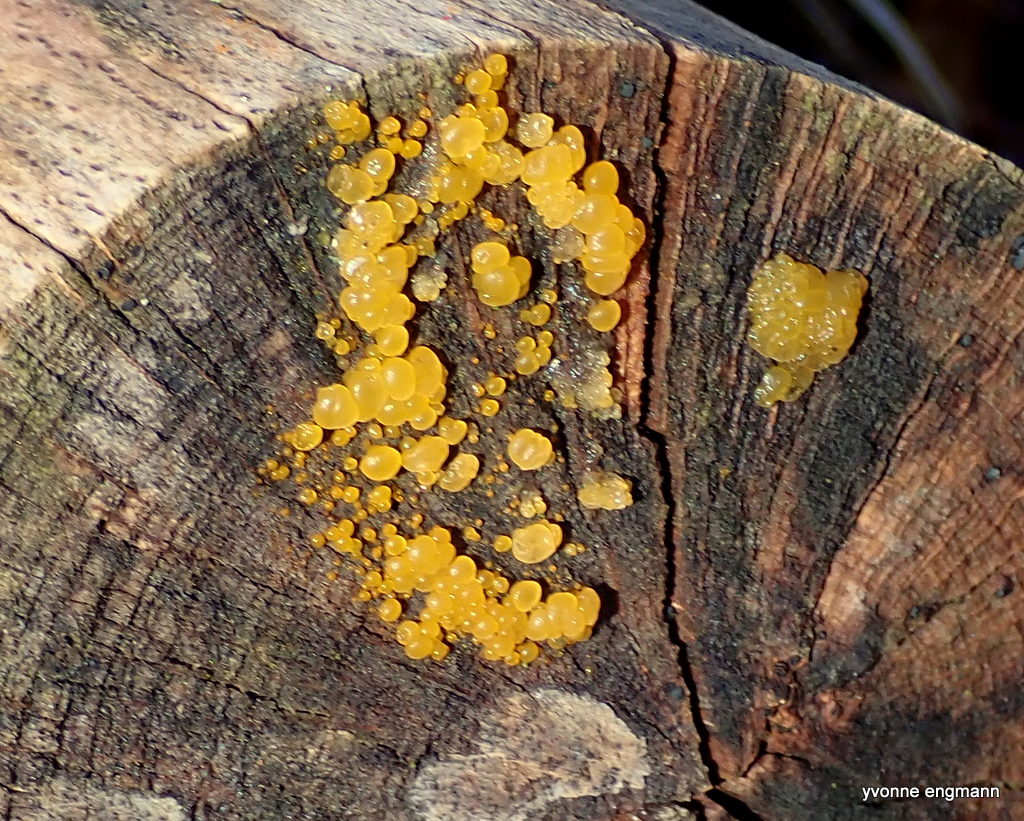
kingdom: Fungi
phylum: Basidiomycota
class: Dacrymycetes
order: Dacrymycetales
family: Dacrymycetaceae
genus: Dacrymyces
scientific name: Dacrymyces
